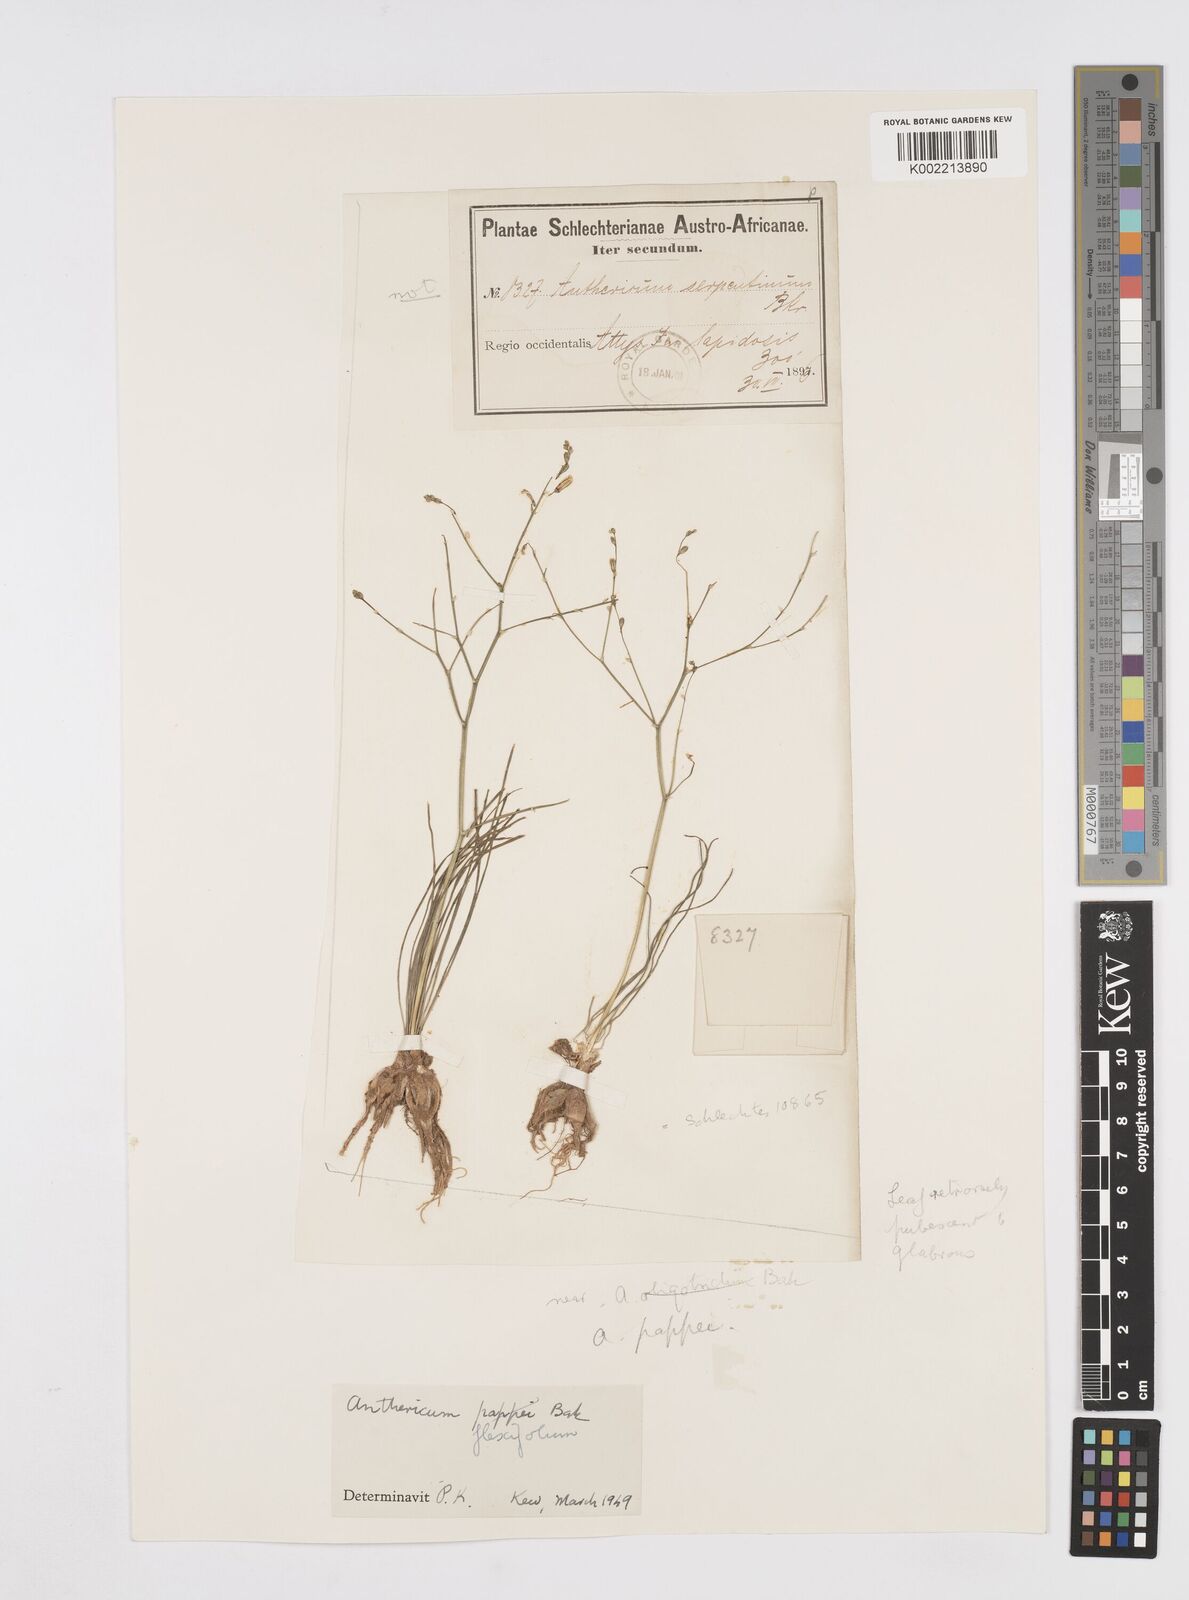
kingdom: Plantae
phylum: Tracheophyta
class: Liliopsida
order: Asparagales
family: Asphodelaceae
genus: Trachyandra
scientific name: Trachyandra flexifolia
